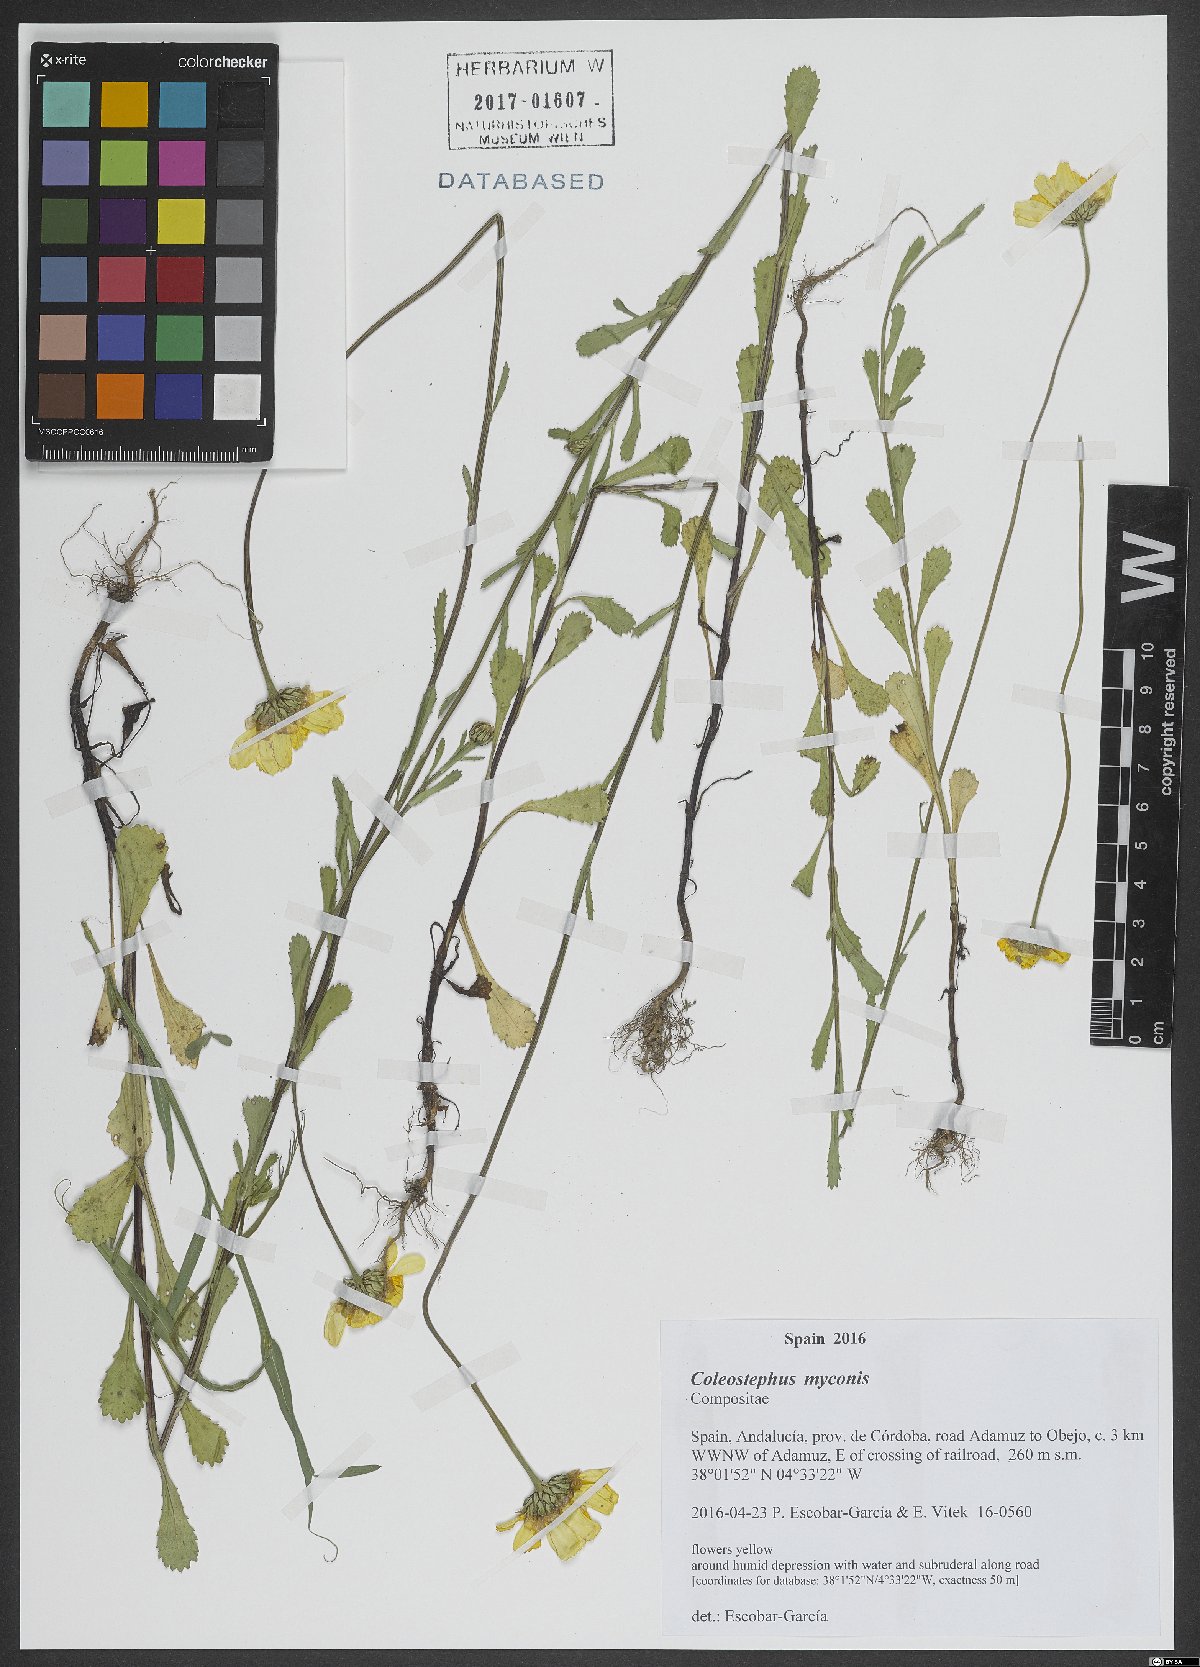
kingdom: Plantae
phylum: Tracheophyta
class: Magnoliopsida
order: Asterales
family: Asteraceae
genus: Coleostephus
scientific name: Coleostephus myconis
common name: Mediterranean marigold
